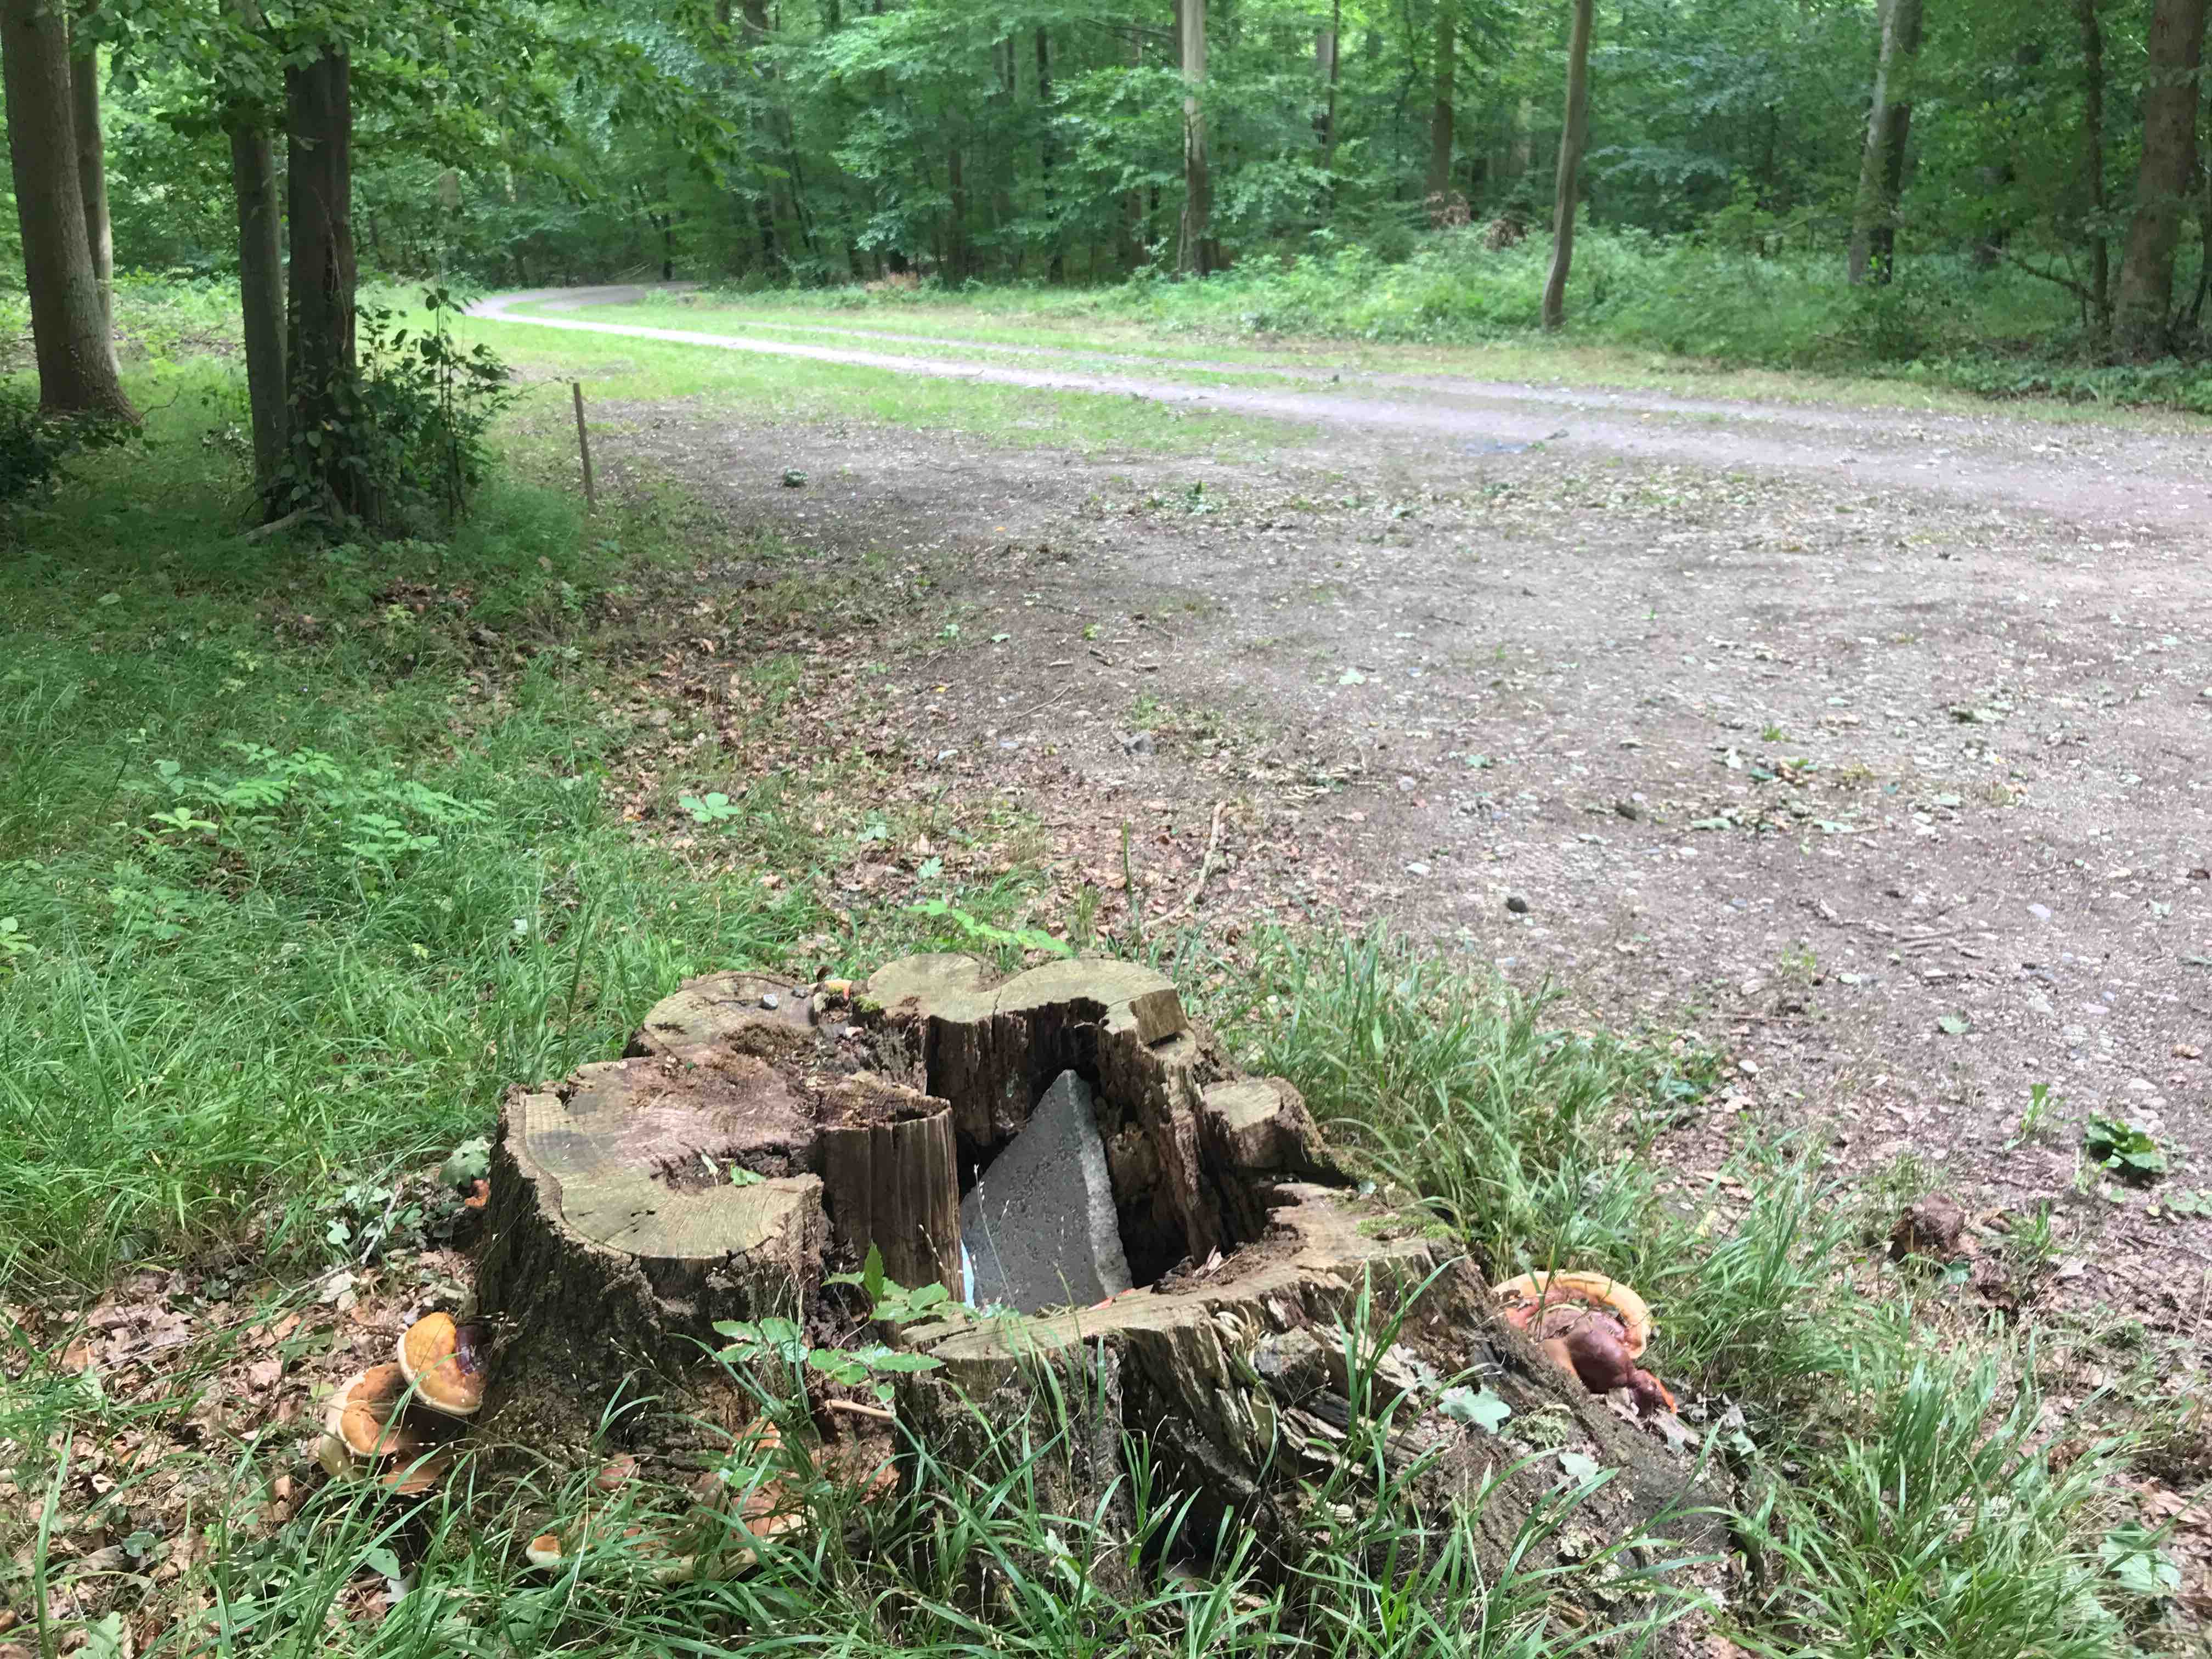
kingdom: Fungi
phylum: Basidiomycota
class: Agaricomycetes
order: Polyporales
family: Polyporaceae
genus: Ganoderma
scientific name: Ganoderma resinaceum
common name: gyldenbrun lakporesvamp
